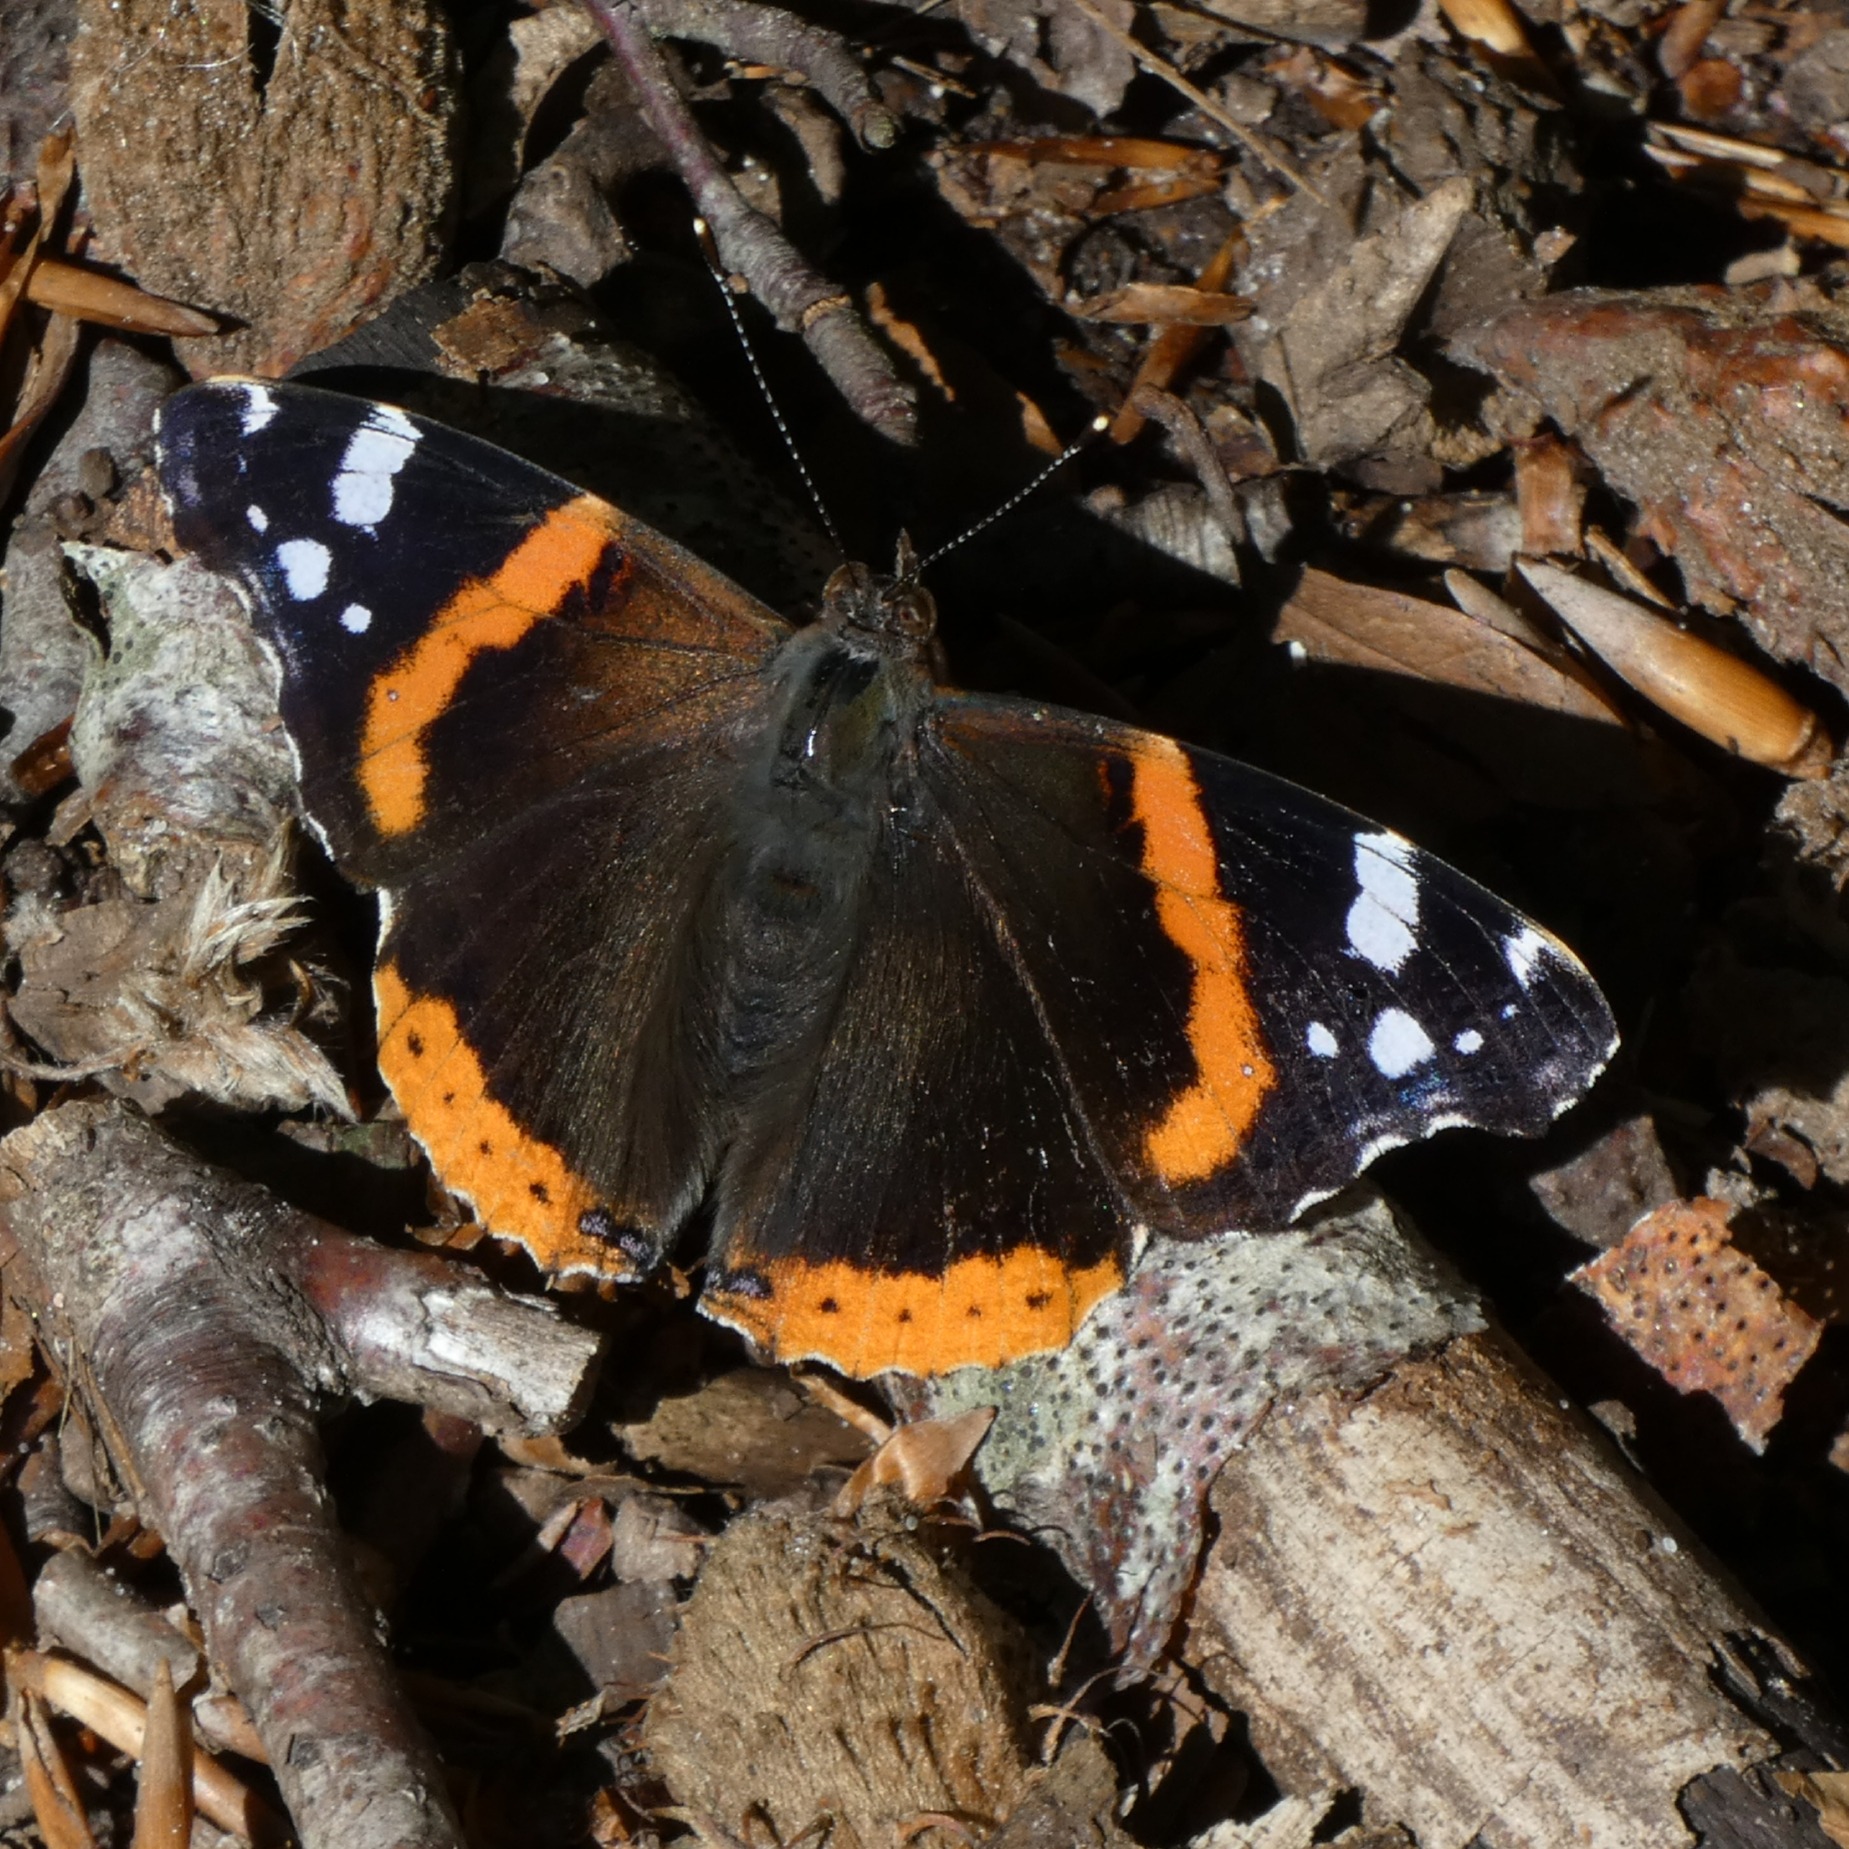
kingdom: Animalia
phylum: Arthropoda
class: Insecta
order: Lepidoptera
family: Nymphalidae
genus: Vanessa
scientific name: Vanessa atalanta
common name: Admiral
